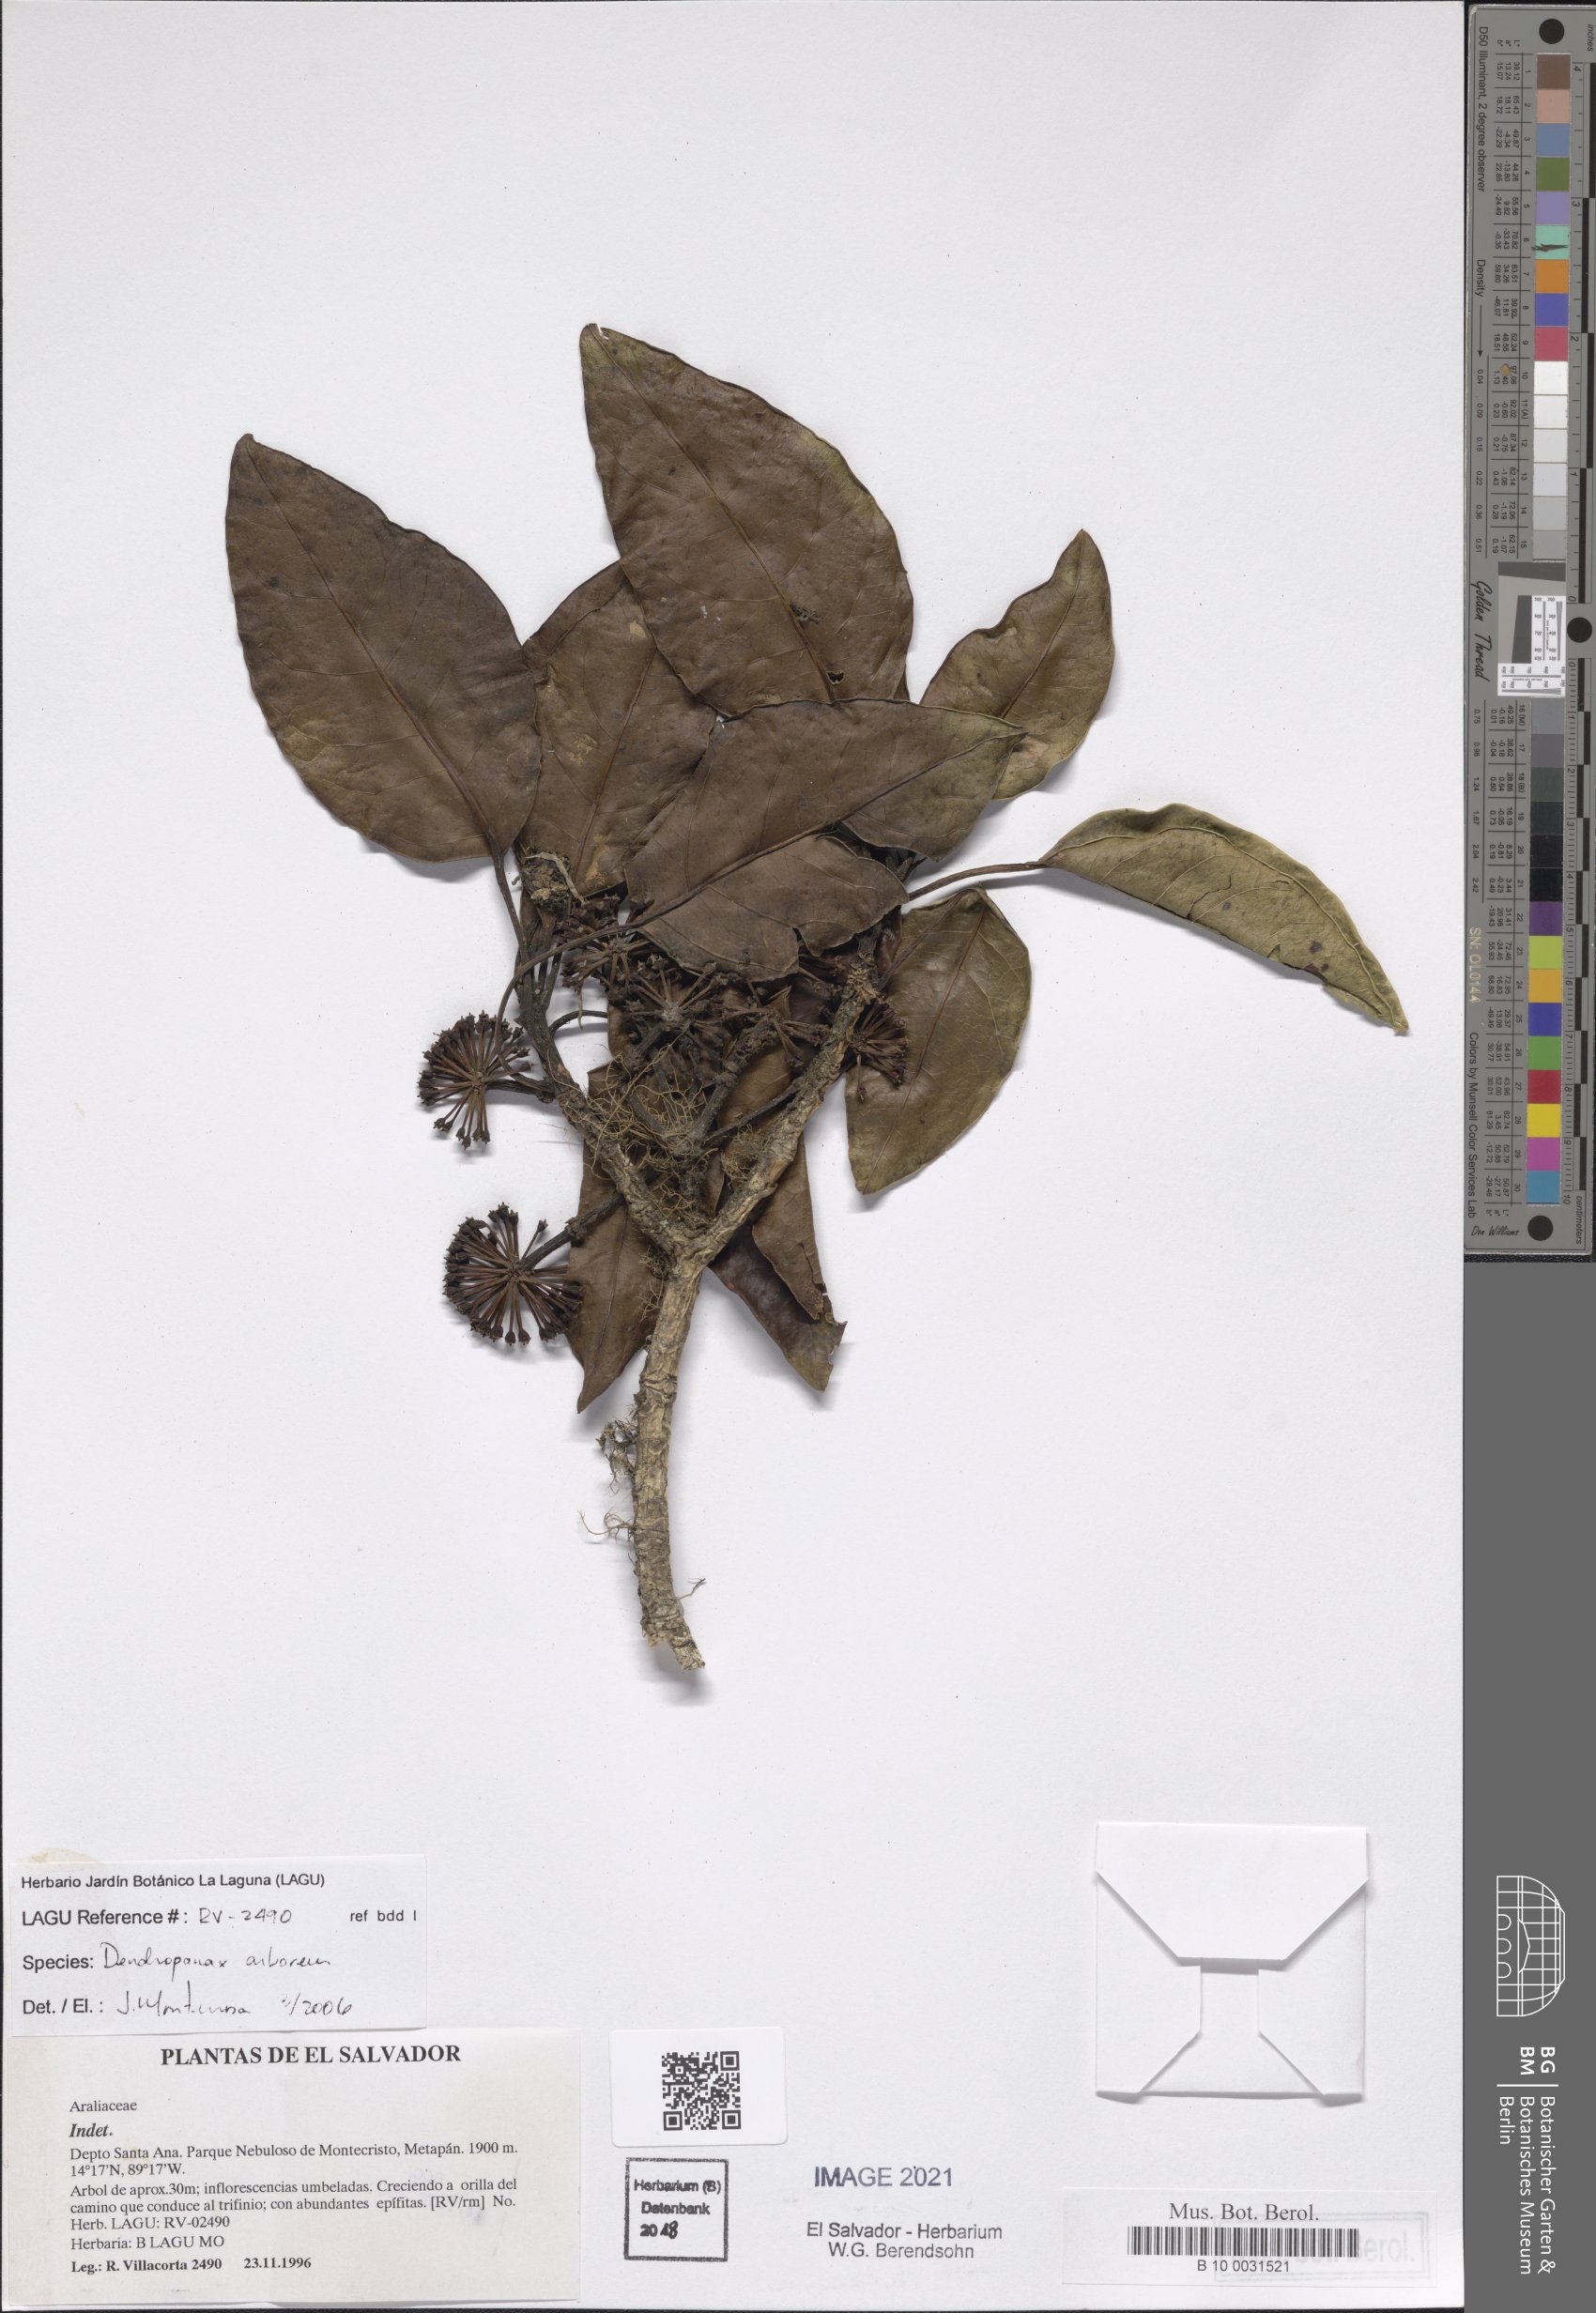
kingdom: Plantae
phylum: Tracheophyta
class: Magnoliopsida
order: Apiales
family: Araliaceae
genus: Dendropanax
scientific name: Dendropanax arboreus
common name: Potato-wood
